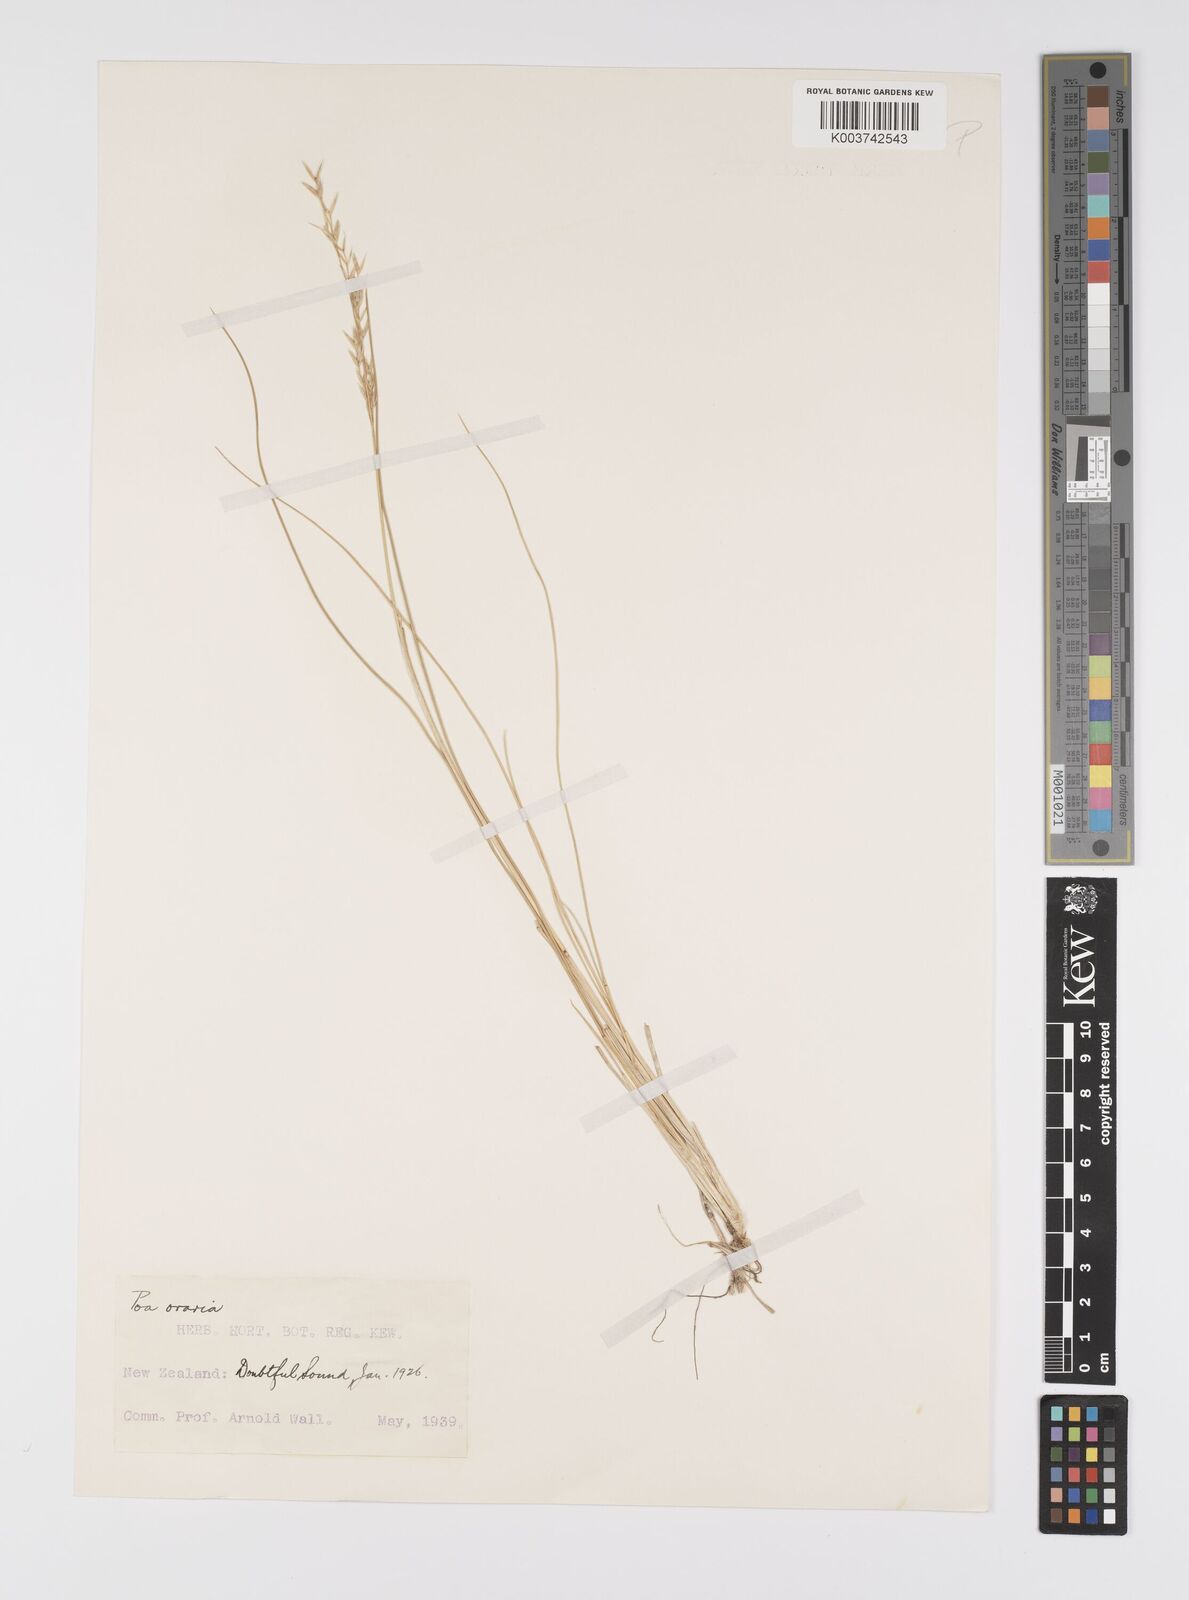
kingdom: Plantae
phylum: Tracheophyta
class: Liliopsida
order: Poales
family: Poaceae
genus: Poa
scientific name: Poa astonii
